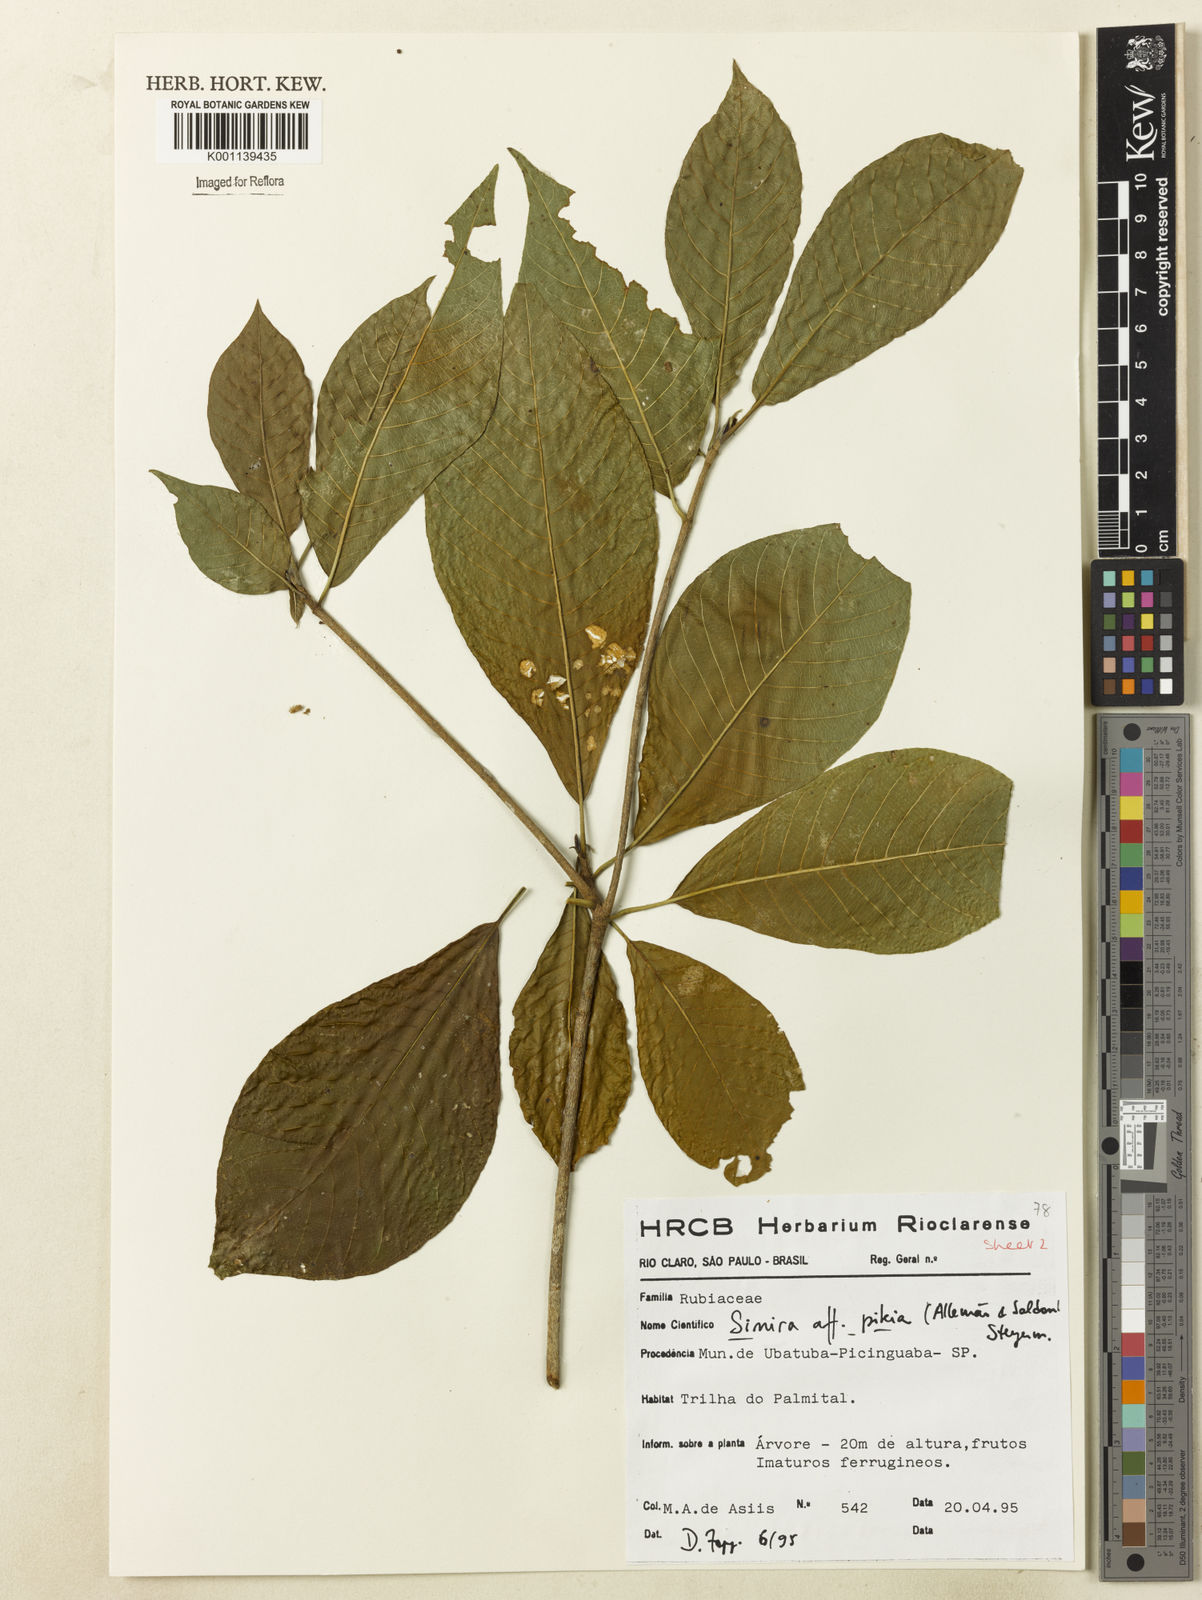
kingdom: Plantae
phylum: Tracheophyta
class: Magnoliopsida
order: Gentianales
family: Rubiaceae
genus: Simira
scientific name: Simira pikia
